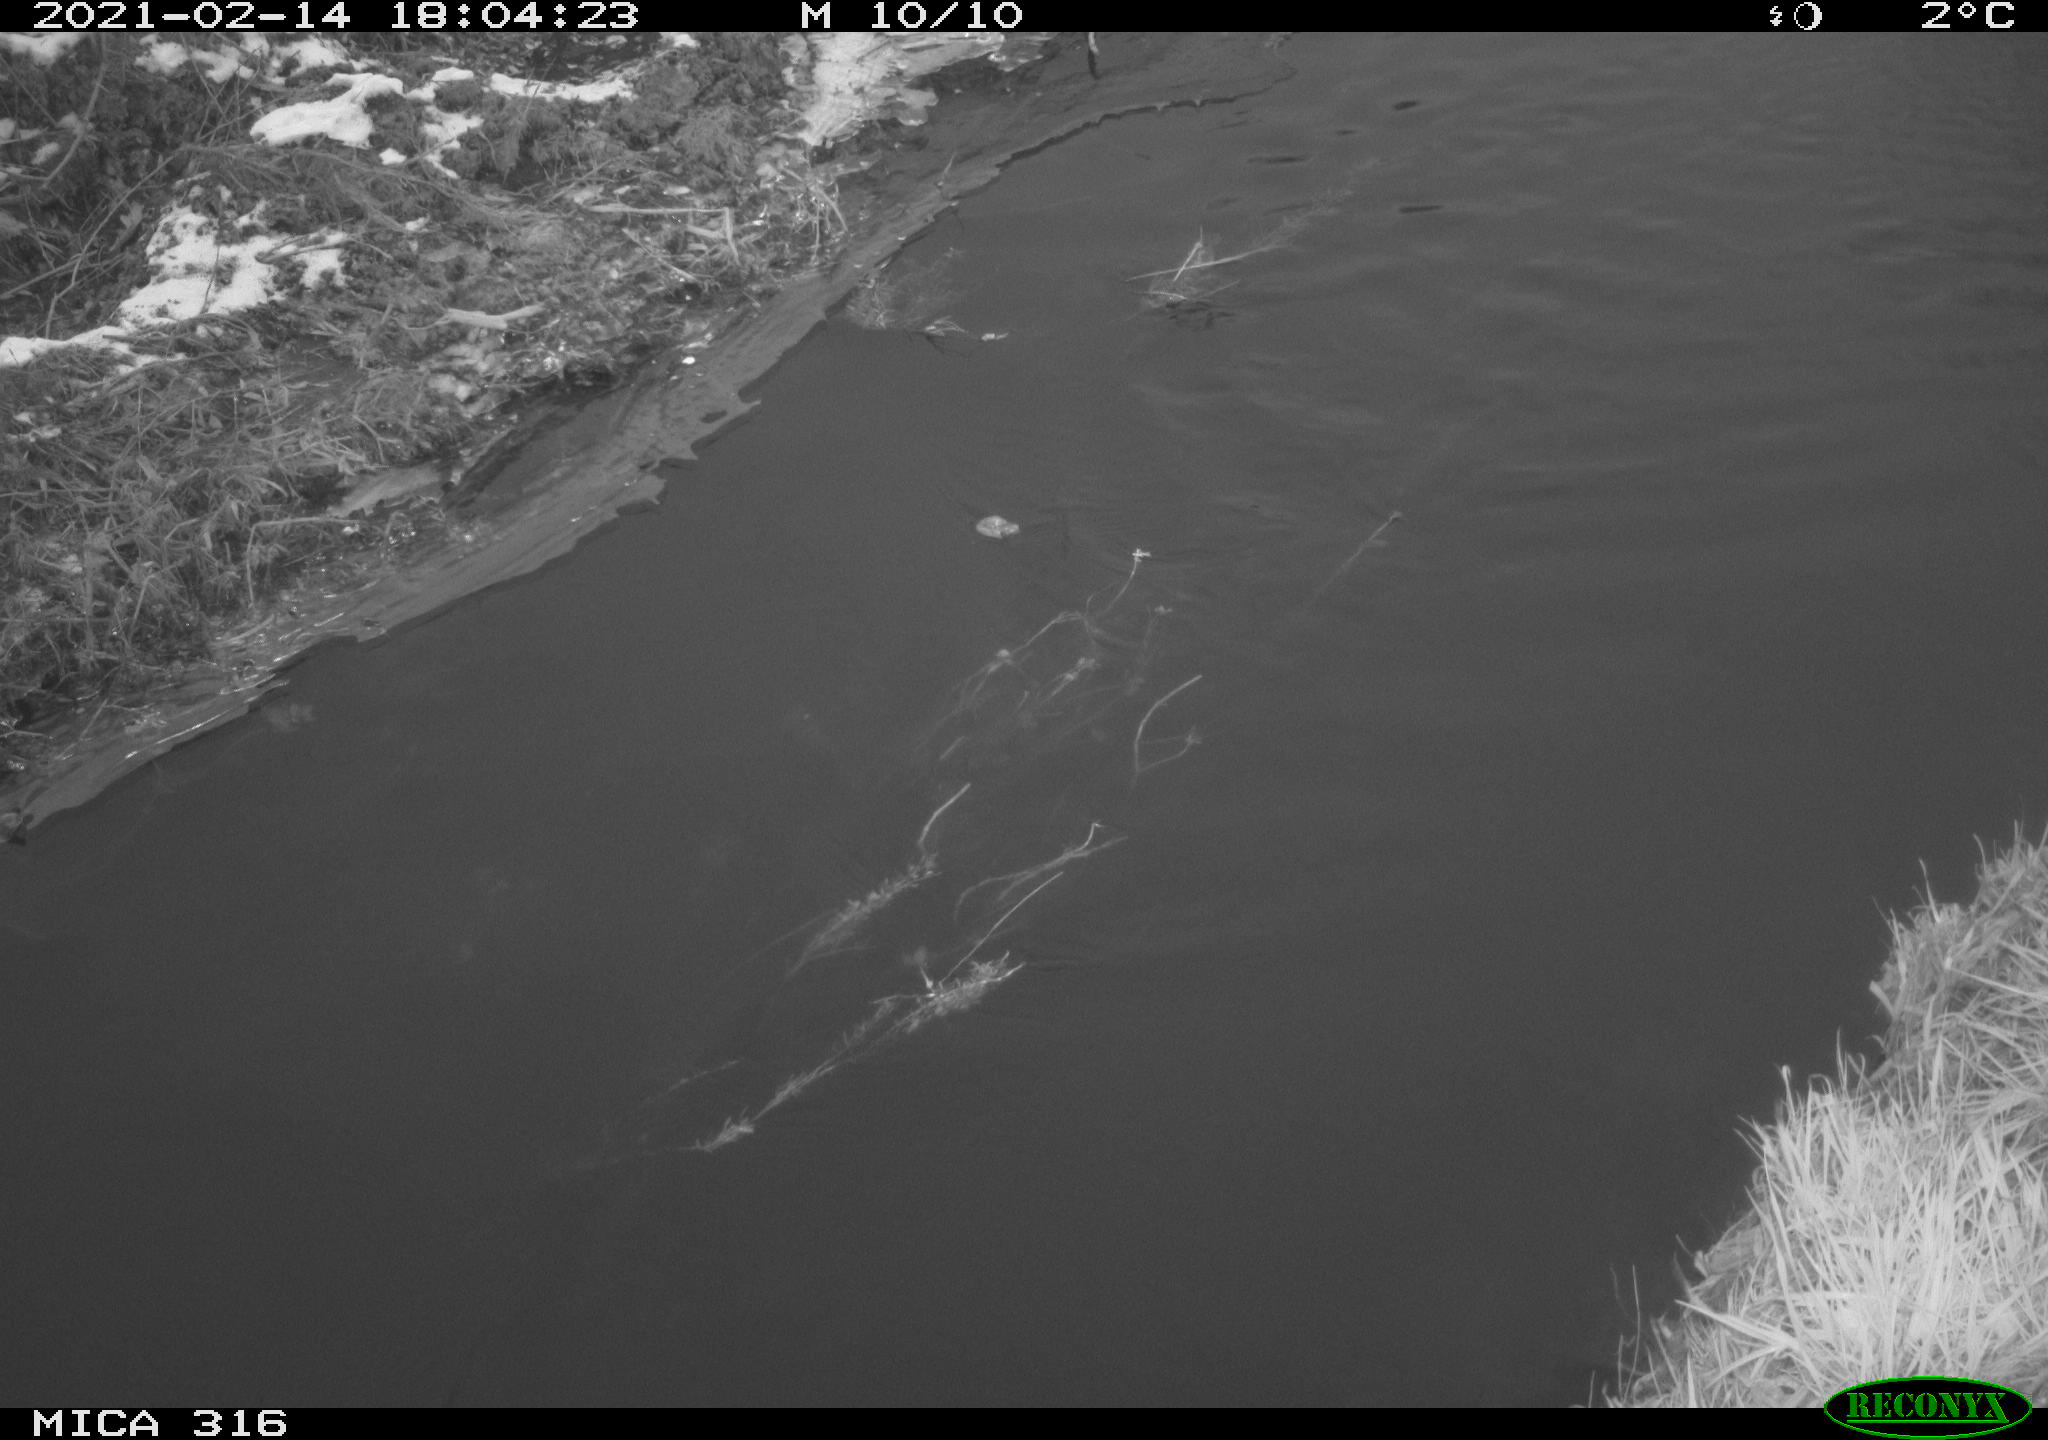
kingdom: Animalia
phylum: Chordata
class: Aves
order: Gruiformes
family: Rallidae
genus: Gallinula
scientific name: Gallinula chloropus
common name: Common moorhen
